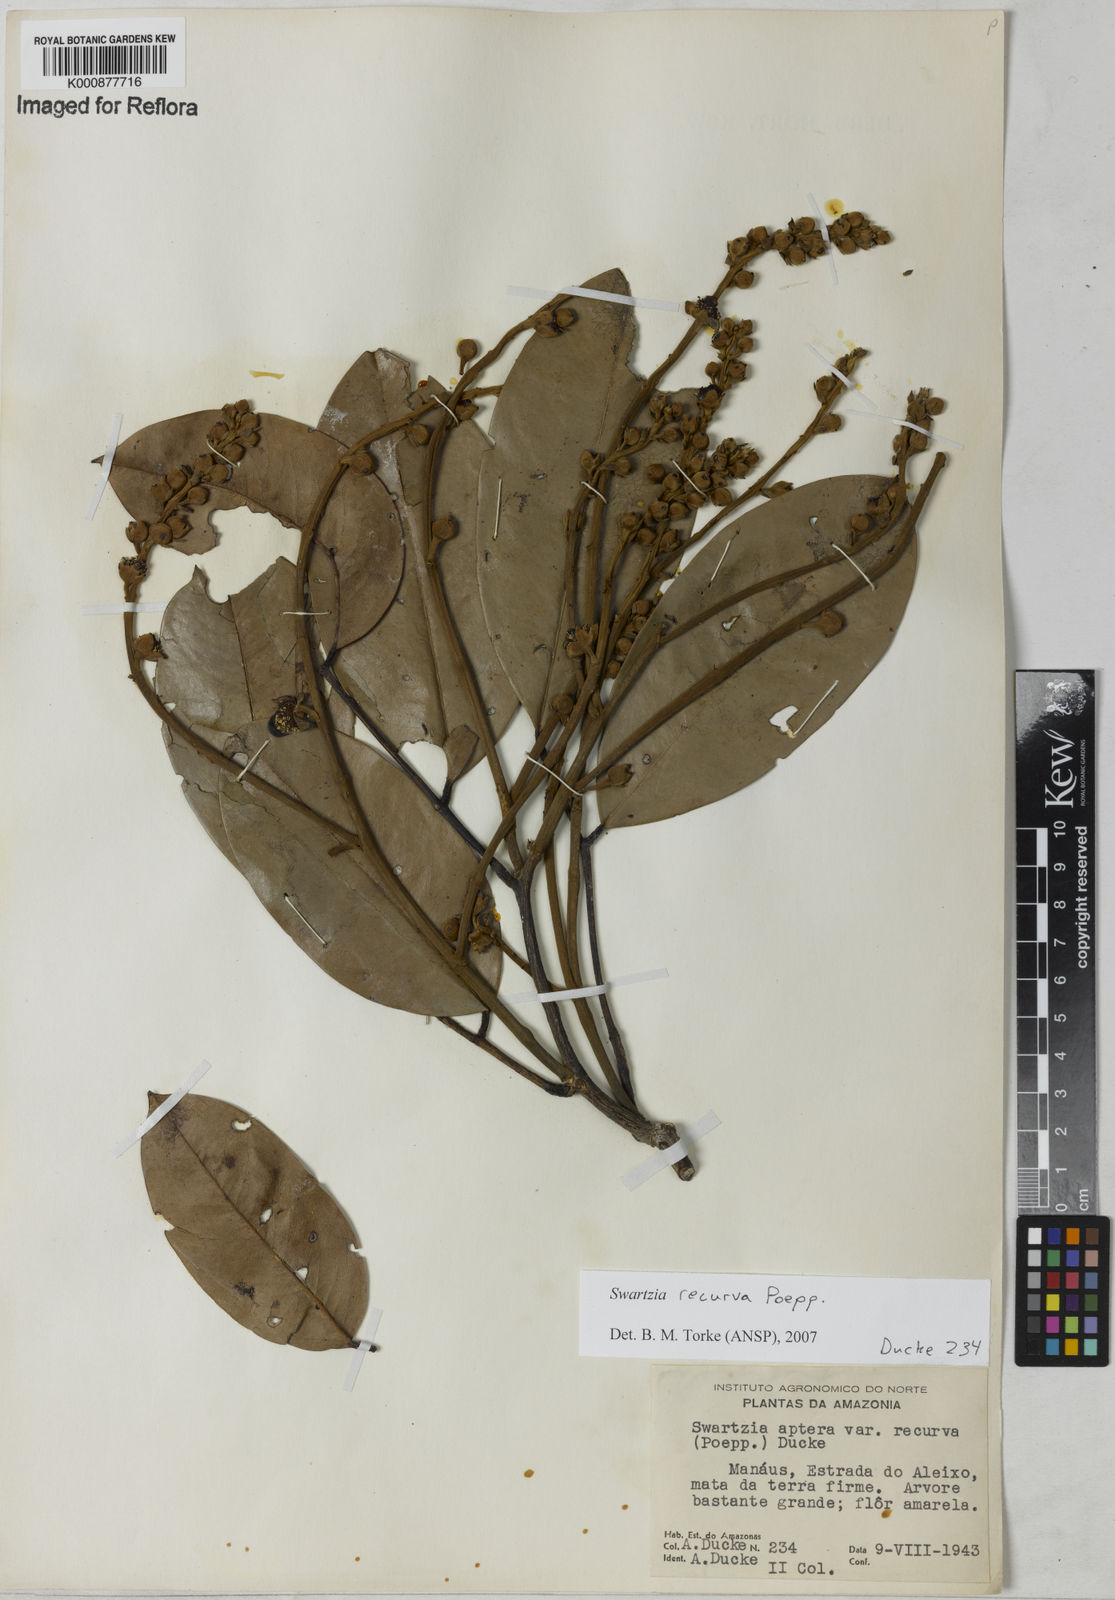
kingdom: Plantae
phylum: Tracheophyta
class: Magnoliopsida
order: Fabales
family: Fabaceae
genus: Swartzia
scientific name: Swartzia recurva
